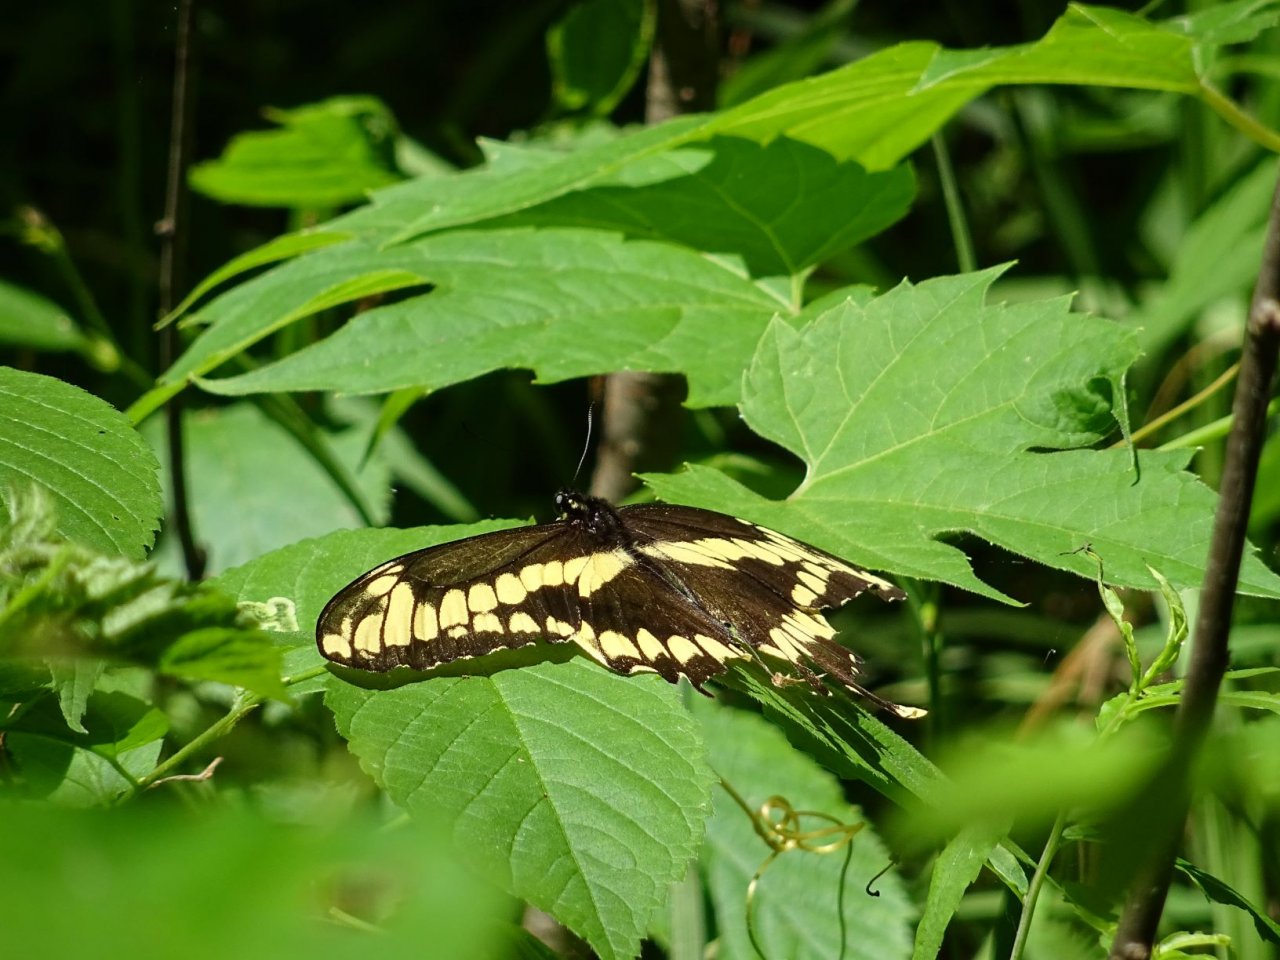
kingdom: Animalia
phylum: Arthropoda
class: Insecta
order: Lepidoptera
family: Papilionidae
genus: Papilio
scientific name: Papilio cresphontes
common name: Eastern Giant Swallowtail
